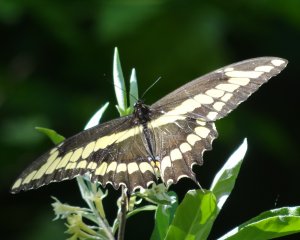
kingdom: Animalia
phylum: Arthropoda
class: Insecta
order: Lepidoptera
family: Papilionidae
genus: Papilio
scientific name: Papilio cresphontes
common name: Eastern Giant Swallowtail
